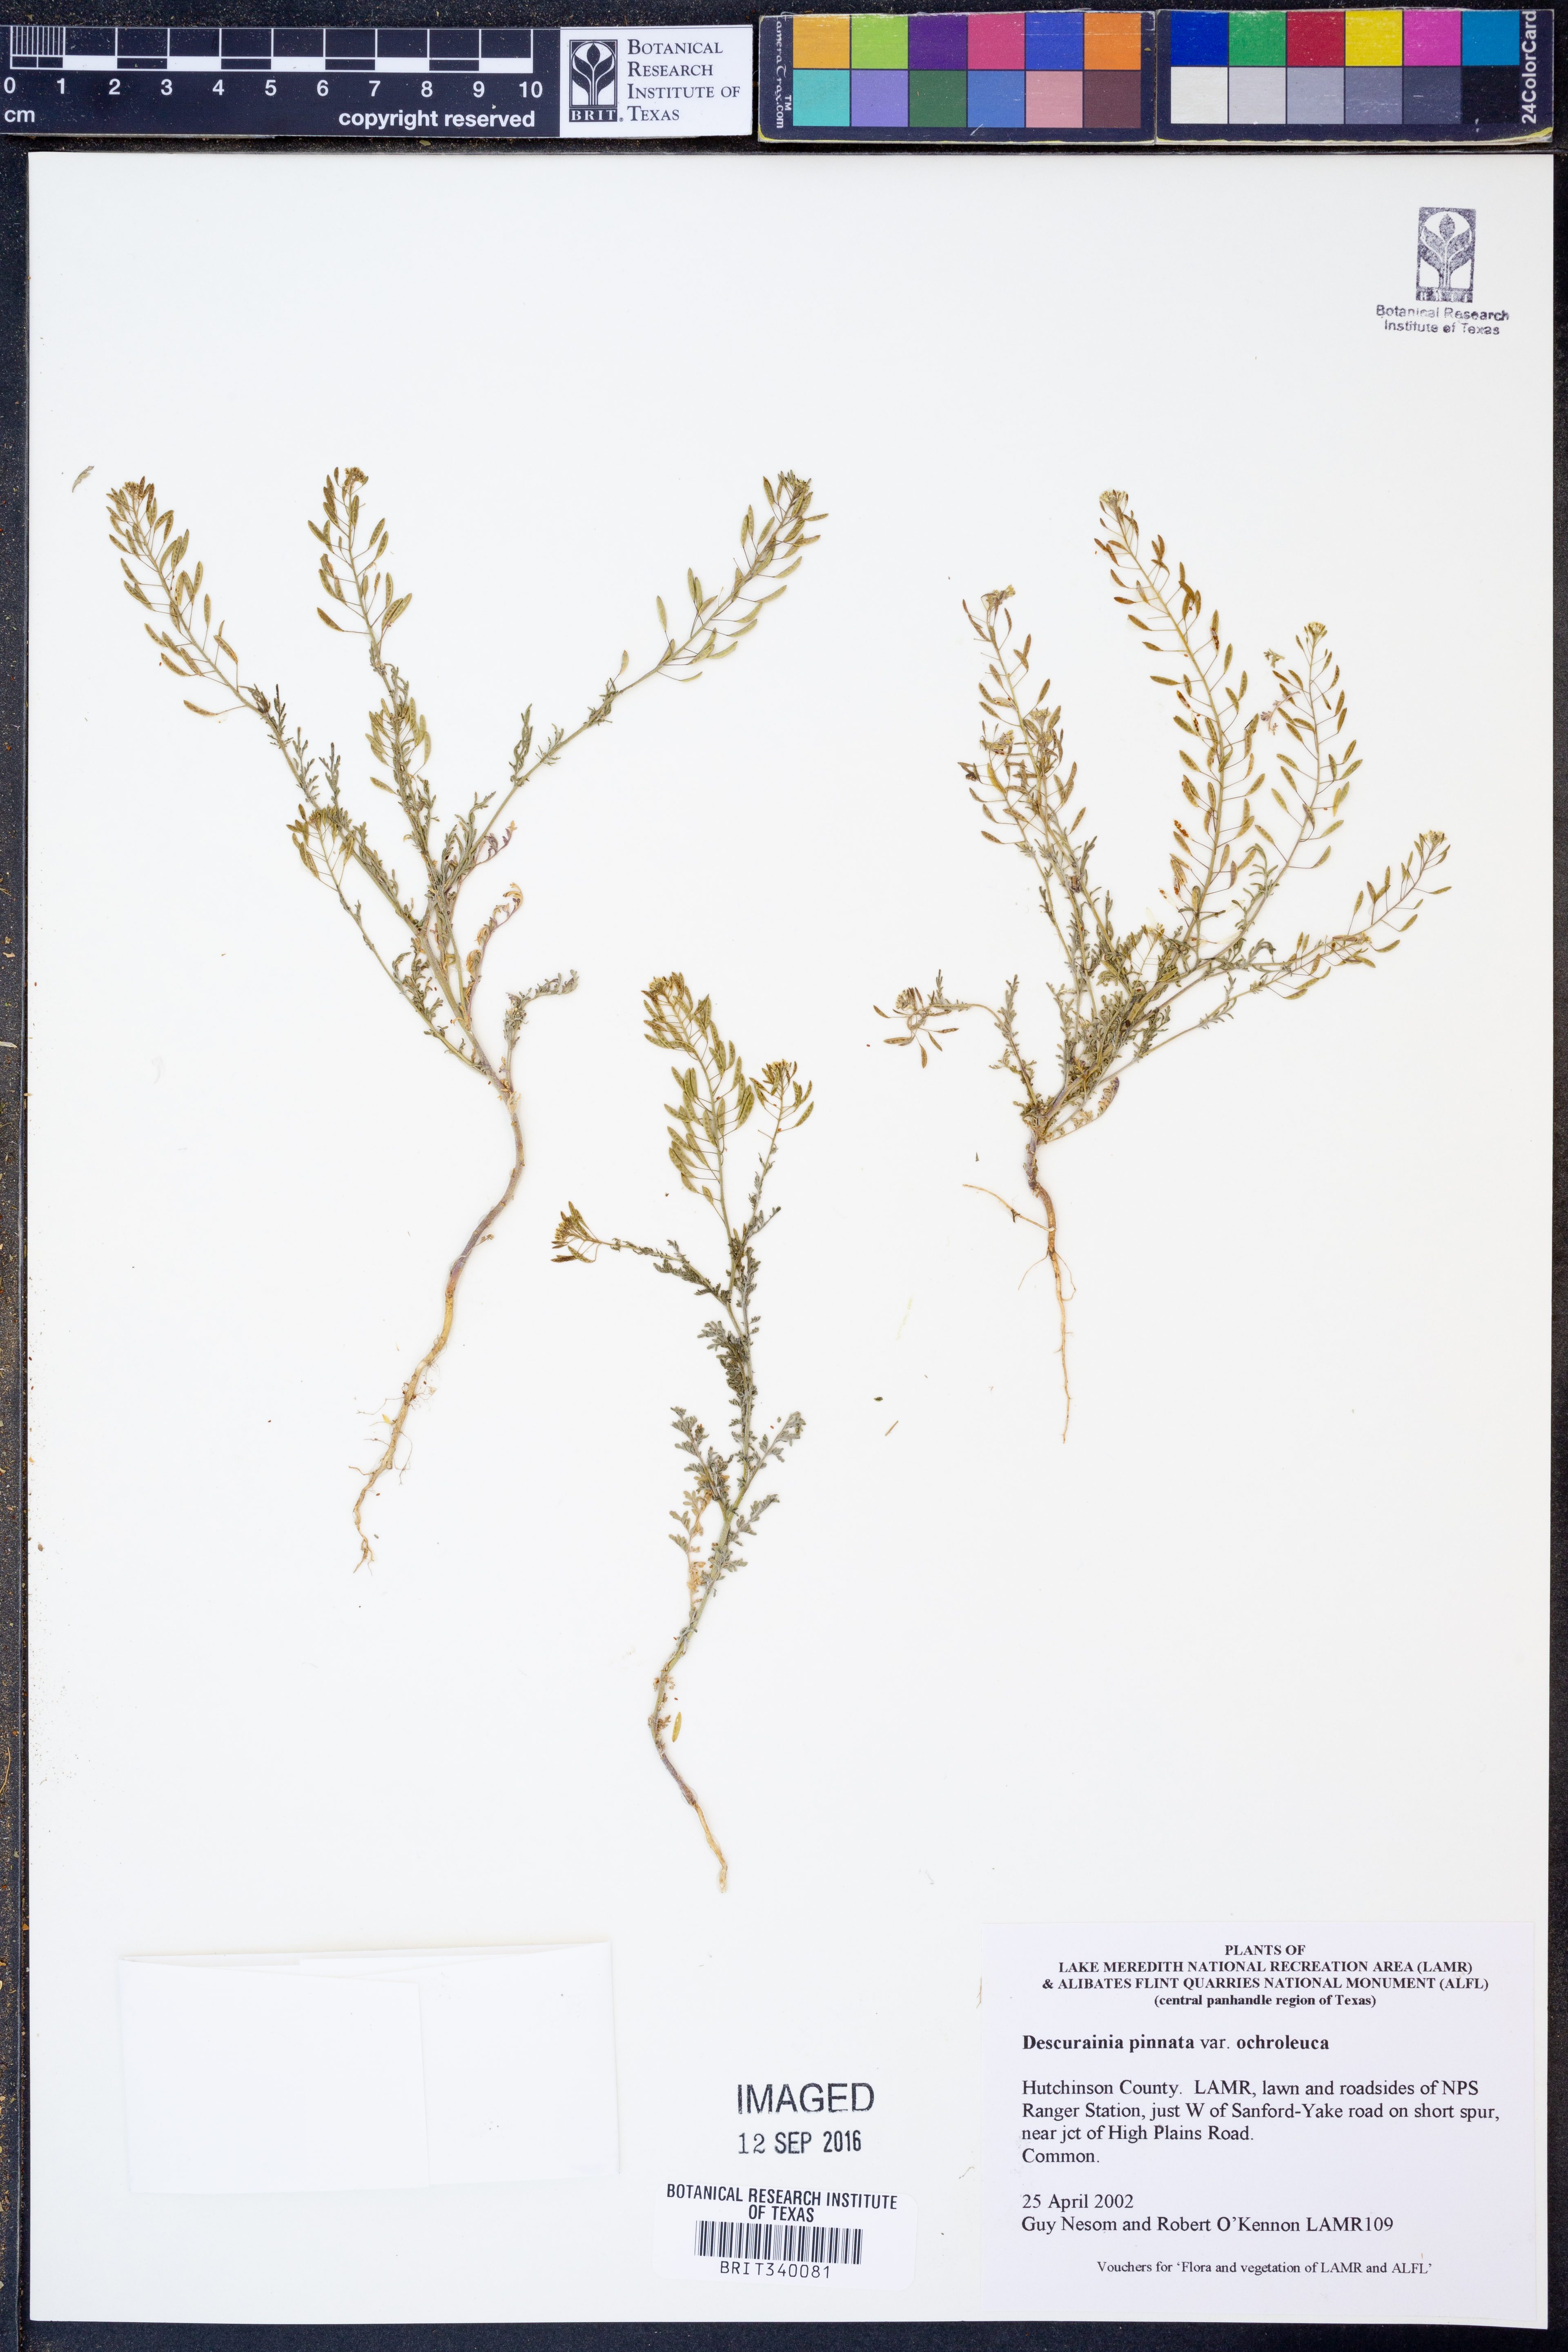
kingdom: Plantae
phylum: Tracheophyta
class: Magnoliopsida
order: Brassicales
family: Brassicaceae
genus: Descurainia
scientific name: Descurainia pinnata
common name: Western tansy mustard
